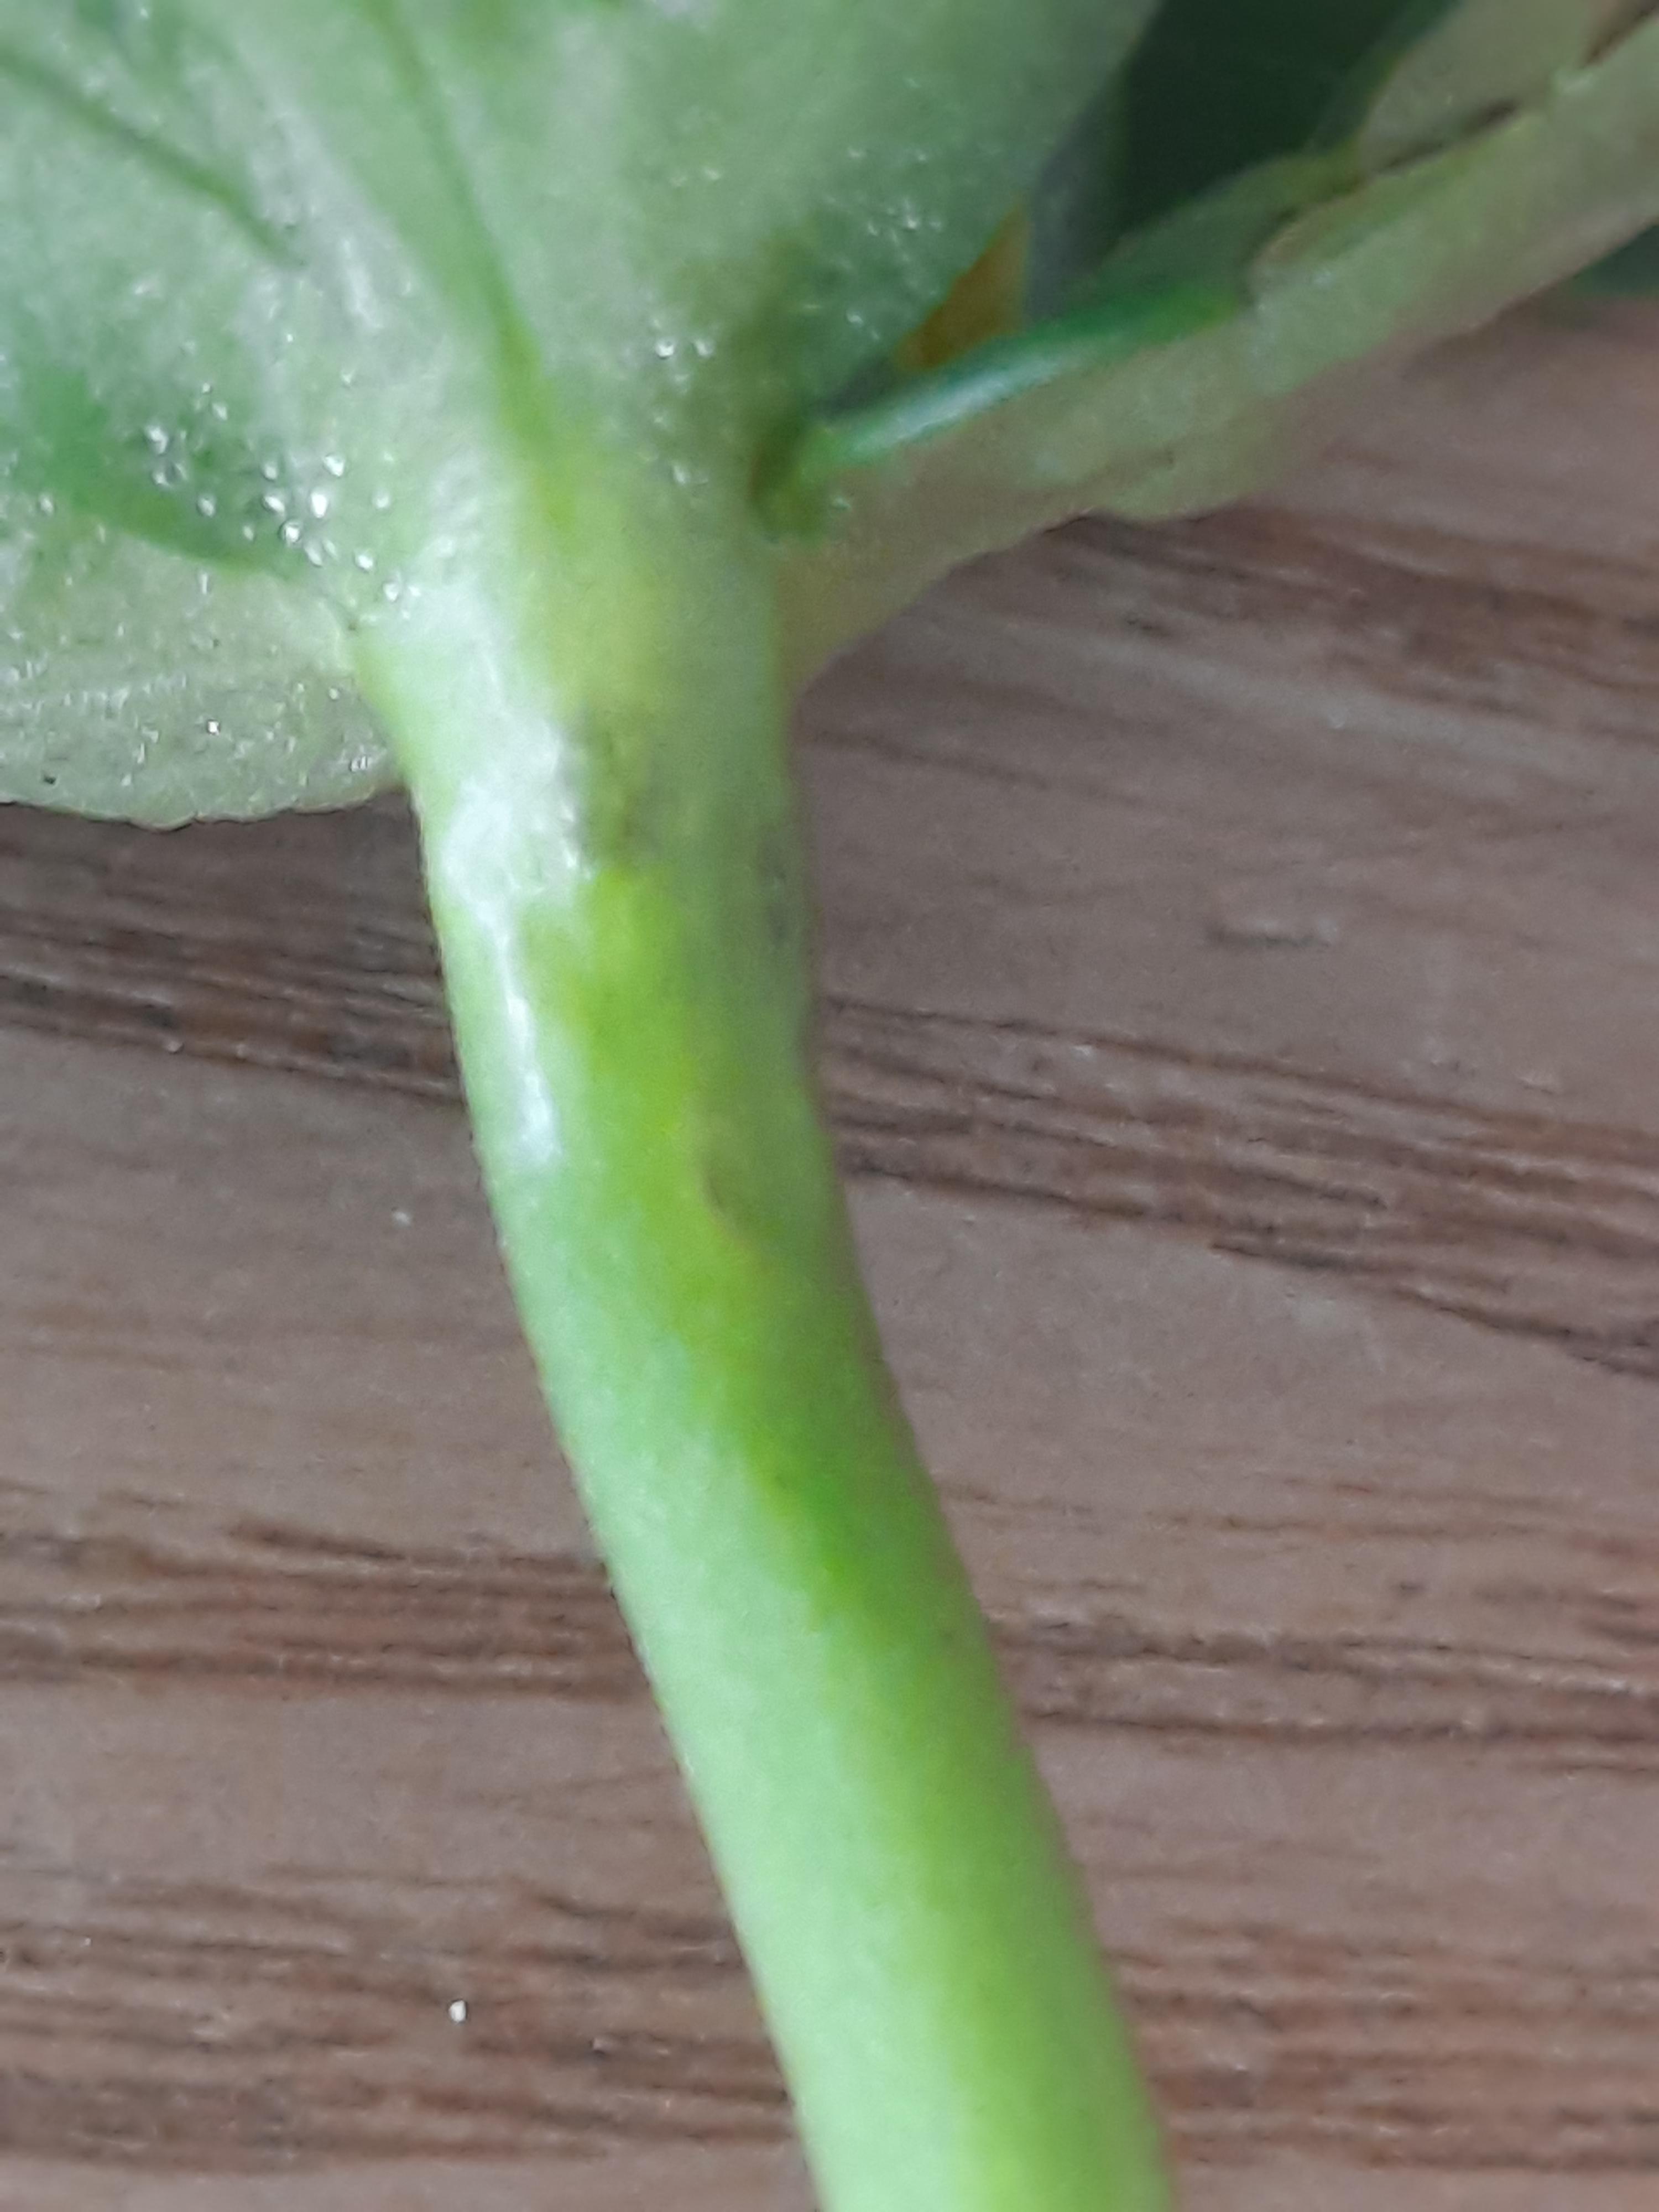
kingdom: Fungi
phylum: Basidiomycota
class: Ustilaginomycetes
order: Urocystidales
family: Urocystidaceae
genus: Urocystis
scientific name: Urocystis eranthidis
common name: erantis-brand
